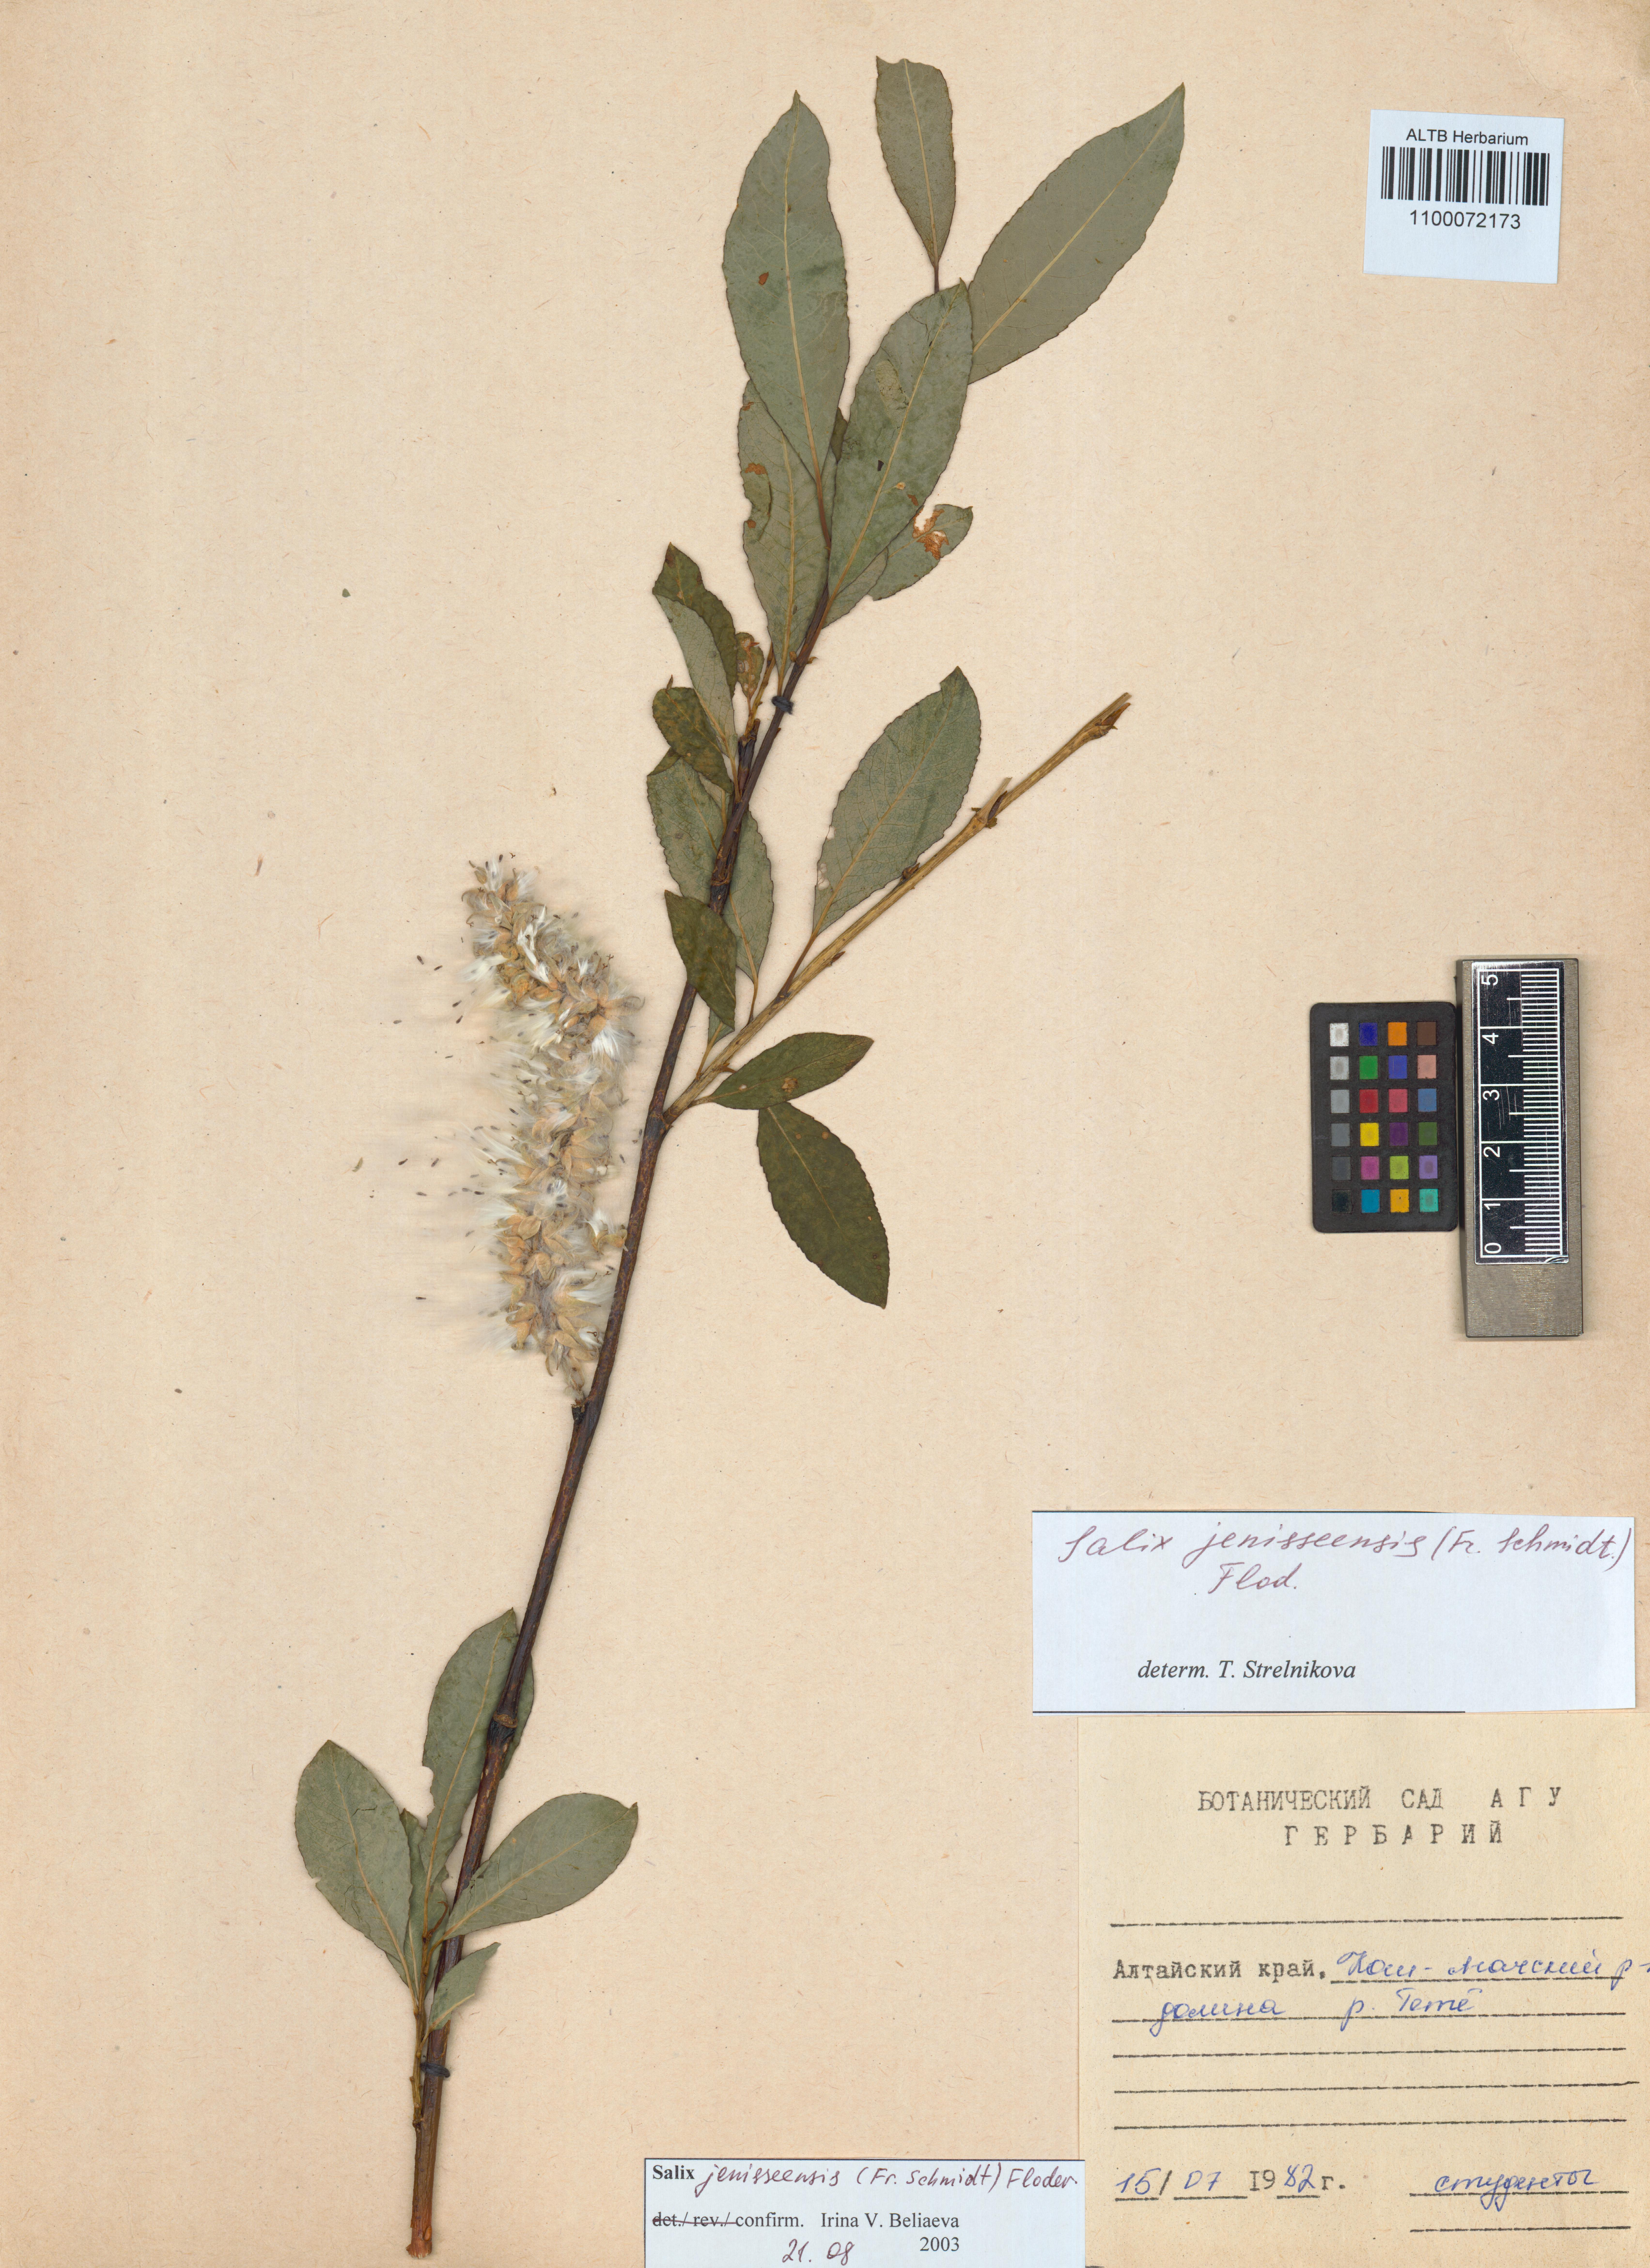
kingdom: Plantae
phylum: Tracheophyta
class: Magnoliopsida
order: Malpighiales
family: Salicaceae
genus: Salix
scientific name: Salix jenisseensis
